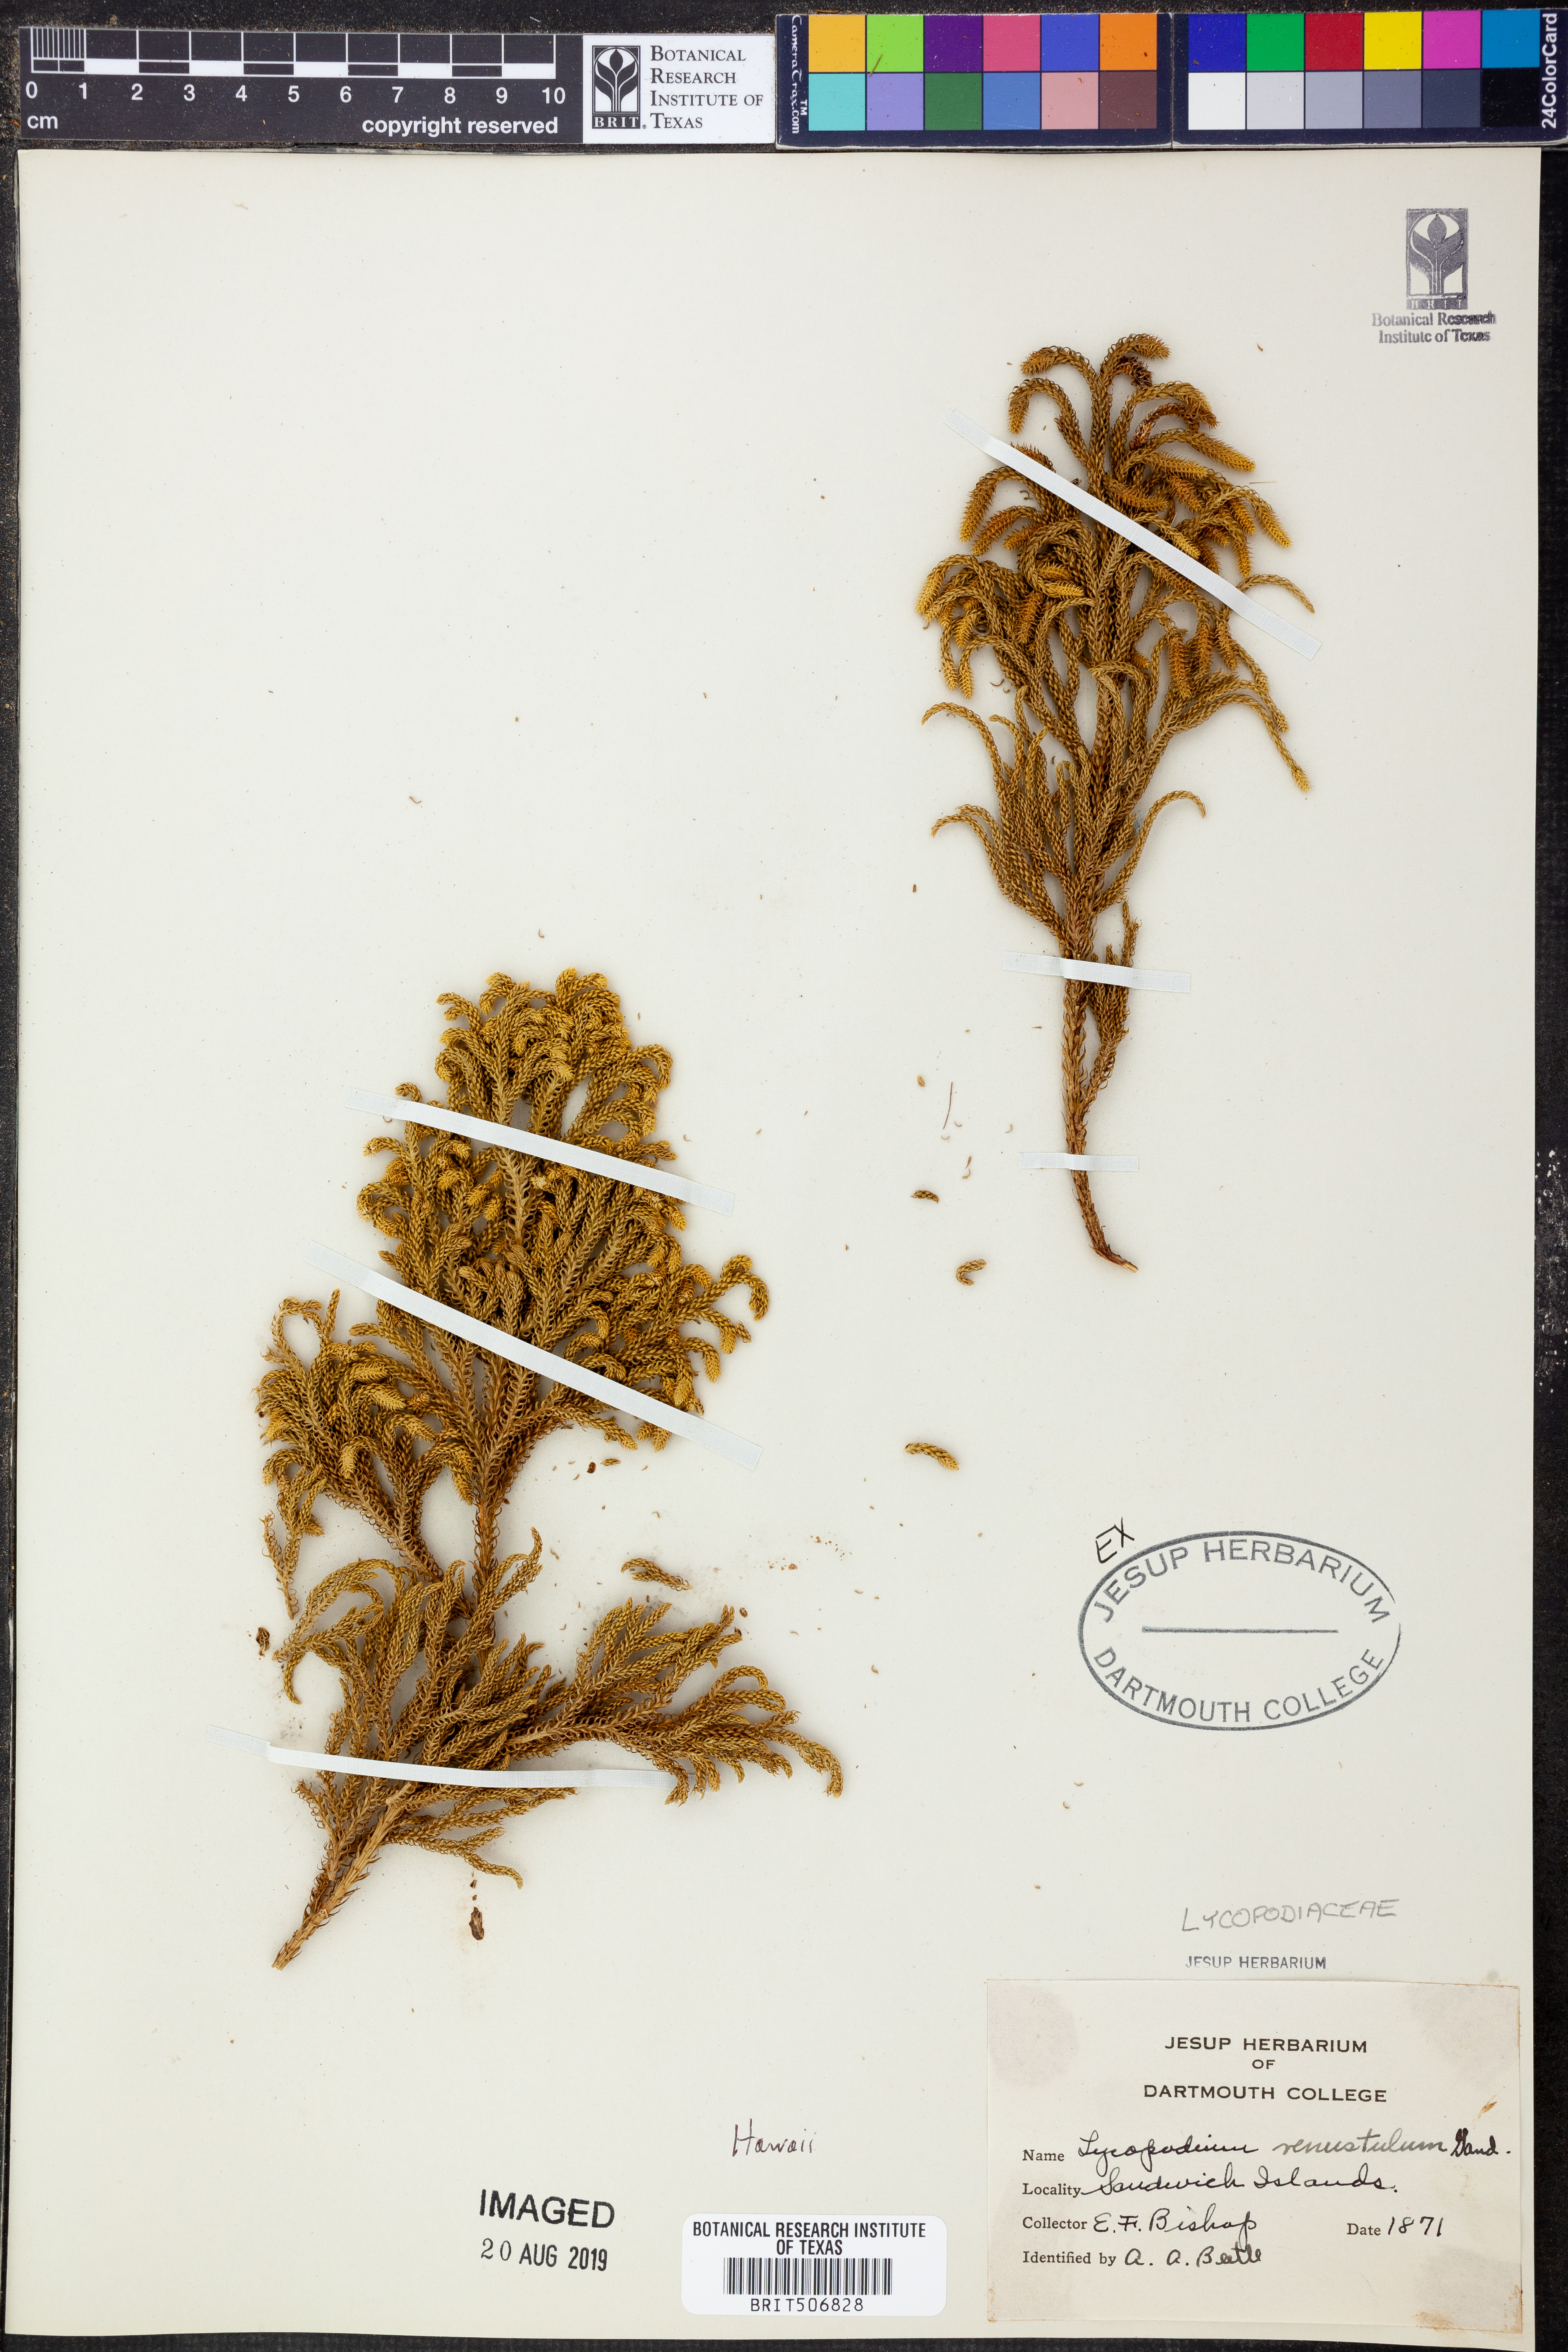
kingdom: Plantae
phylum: Tracheophyta
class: Lycopodiopsida
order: Lycopodiales
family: Lycopodiaceae
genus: Lycopodium
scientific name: Lycopodium venustulum
